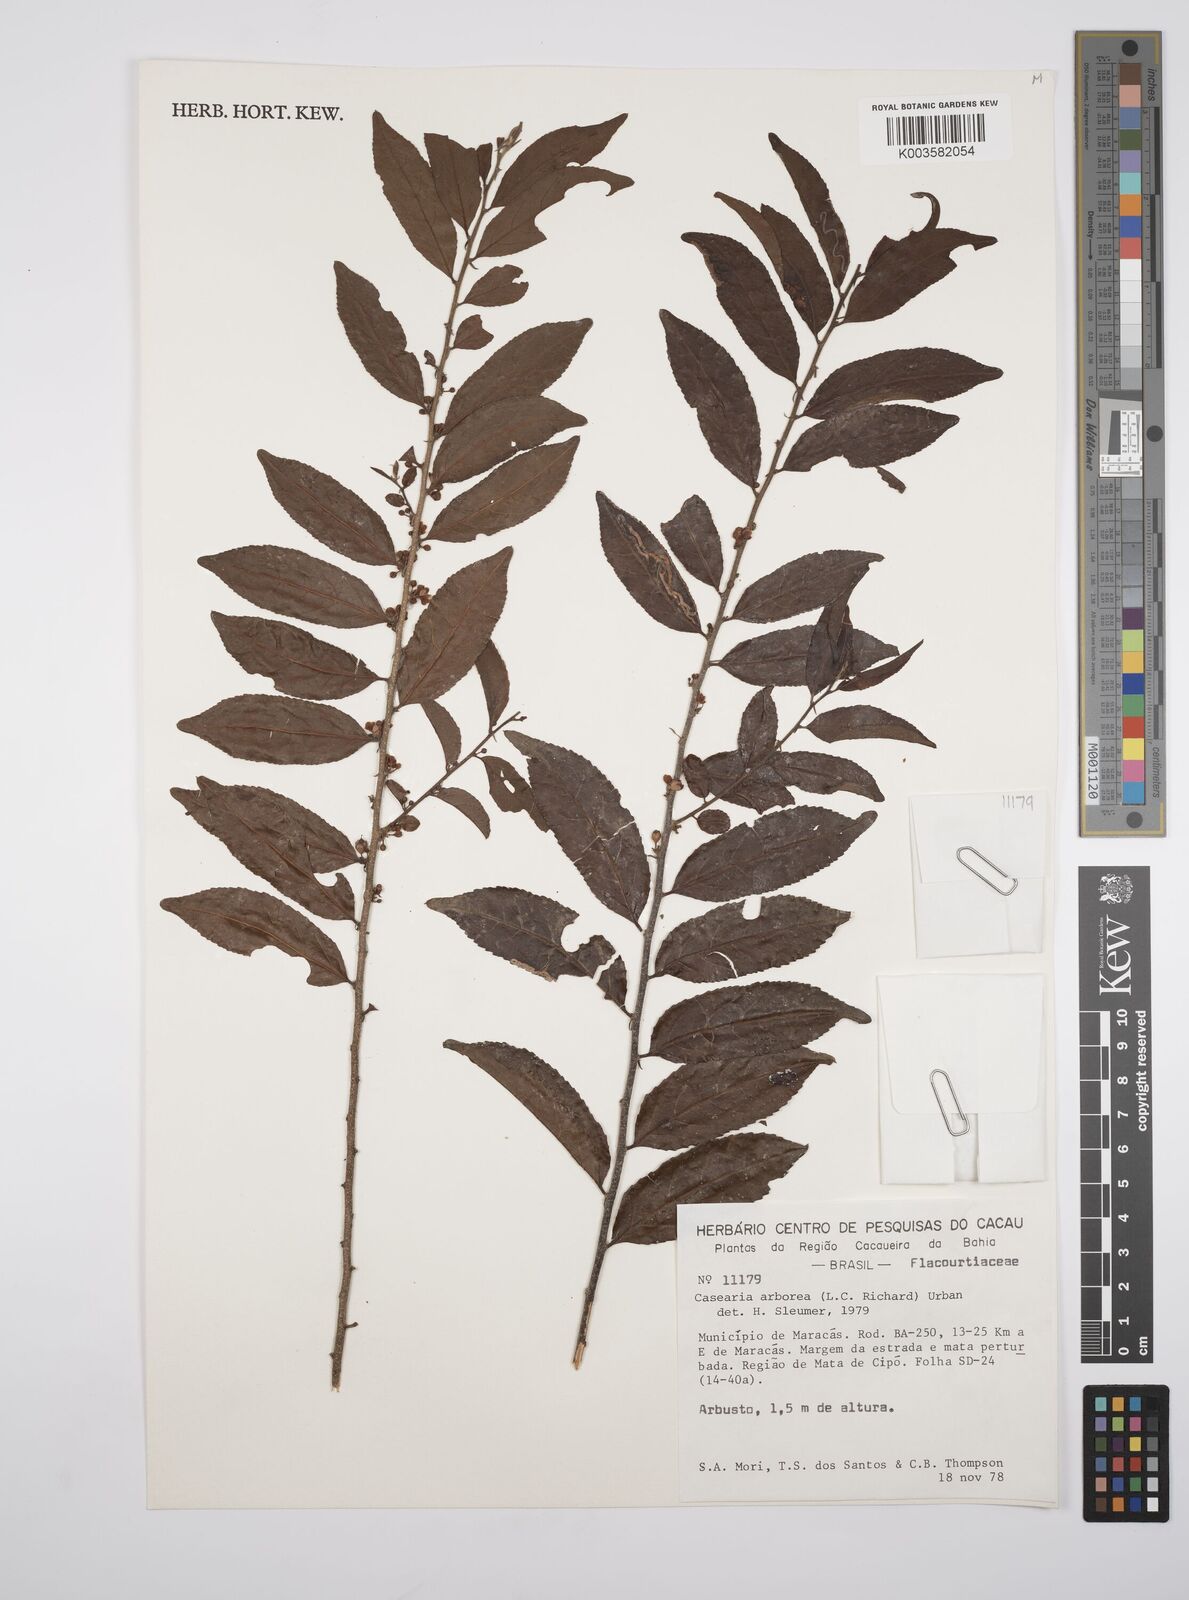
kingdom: Plantae
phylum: Tracheophyta
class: Magnoliopsida
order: Malpighiales
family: Salicaceae
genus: Casearia
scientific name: Casearia arborea
